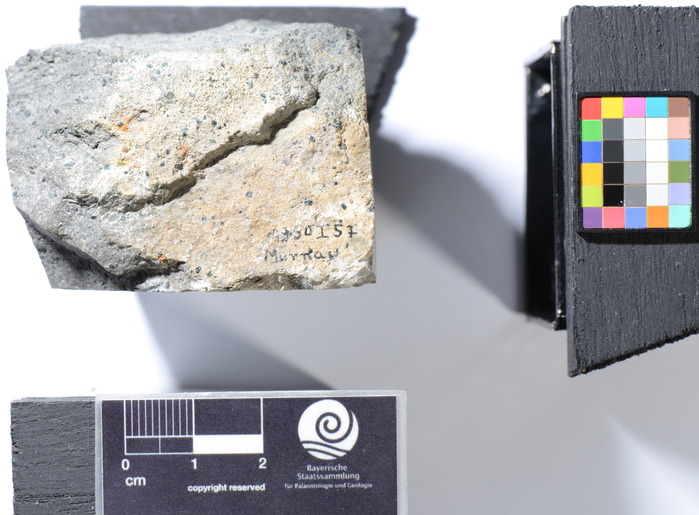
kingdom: Animalia
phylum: Chordata
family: Saurodontidae
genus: Saurocephalus
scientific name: Saurocephalus
